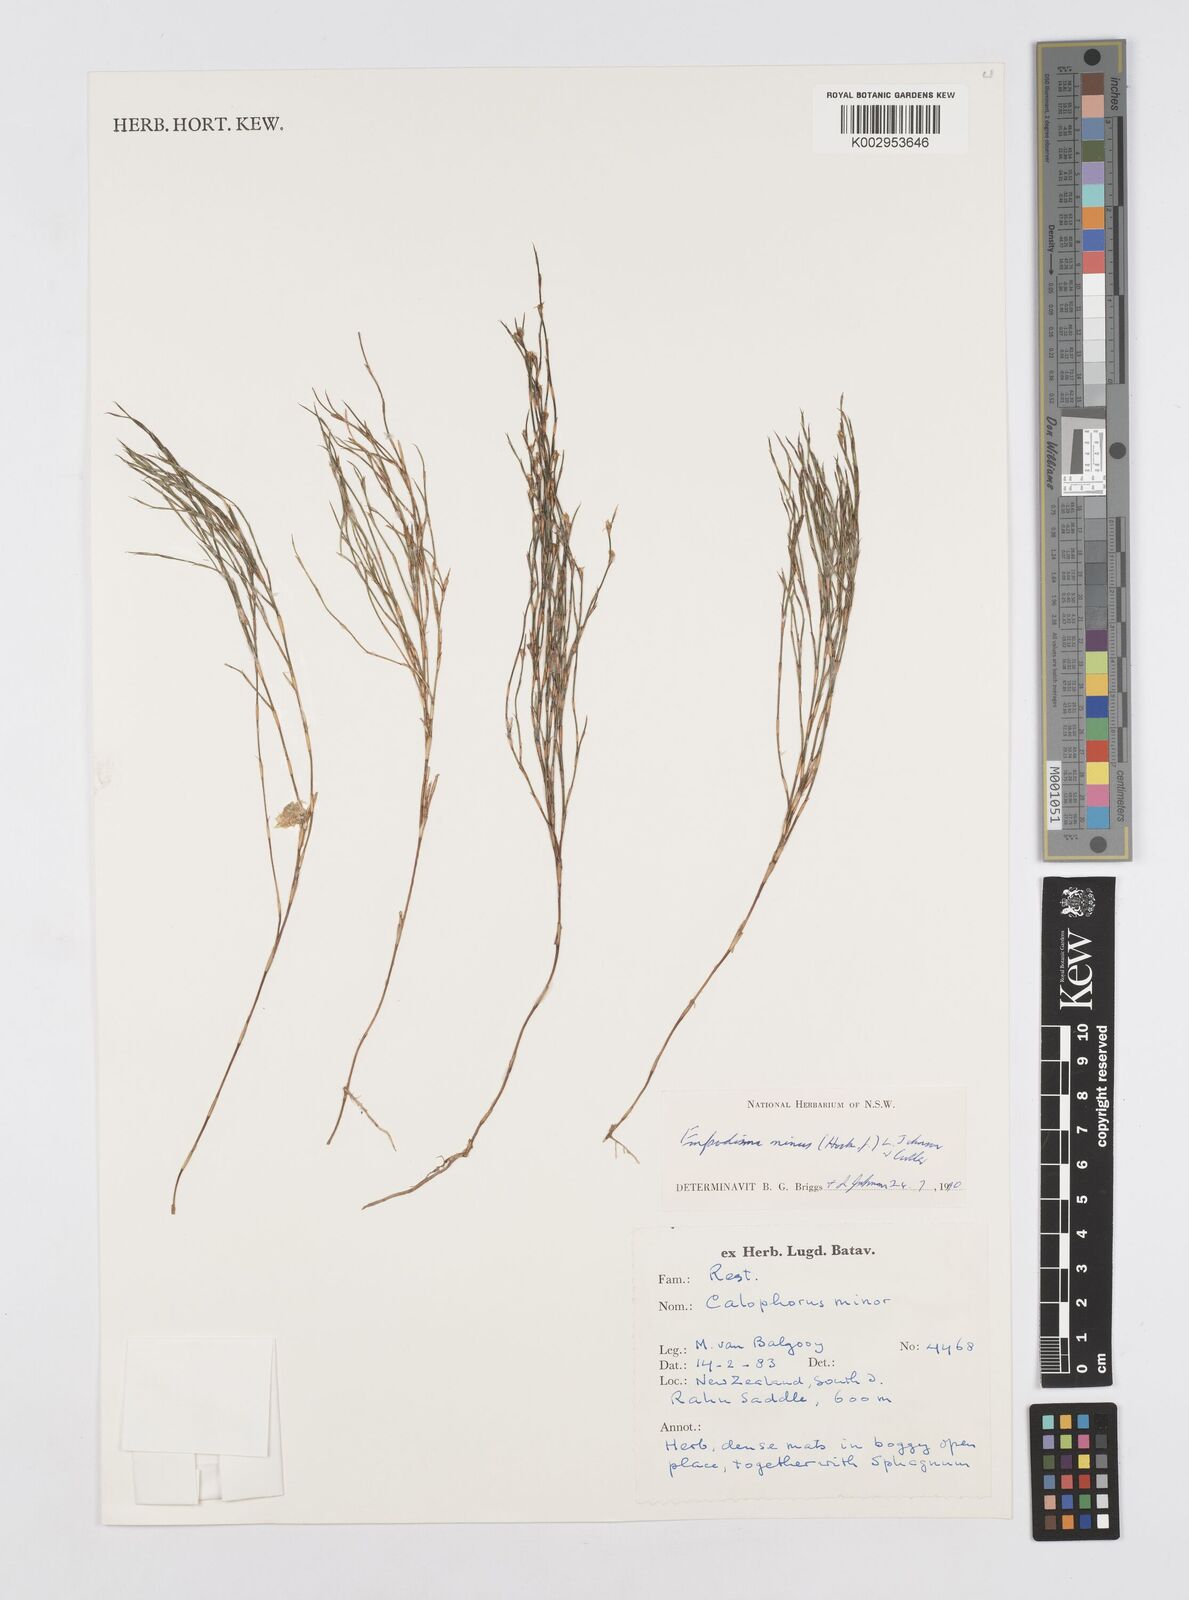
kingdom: Plantae
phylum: Tracheophyta
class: Liliopsida
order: Poales
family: Restionaceae
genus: Empodisma
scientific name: Empodisma minus
